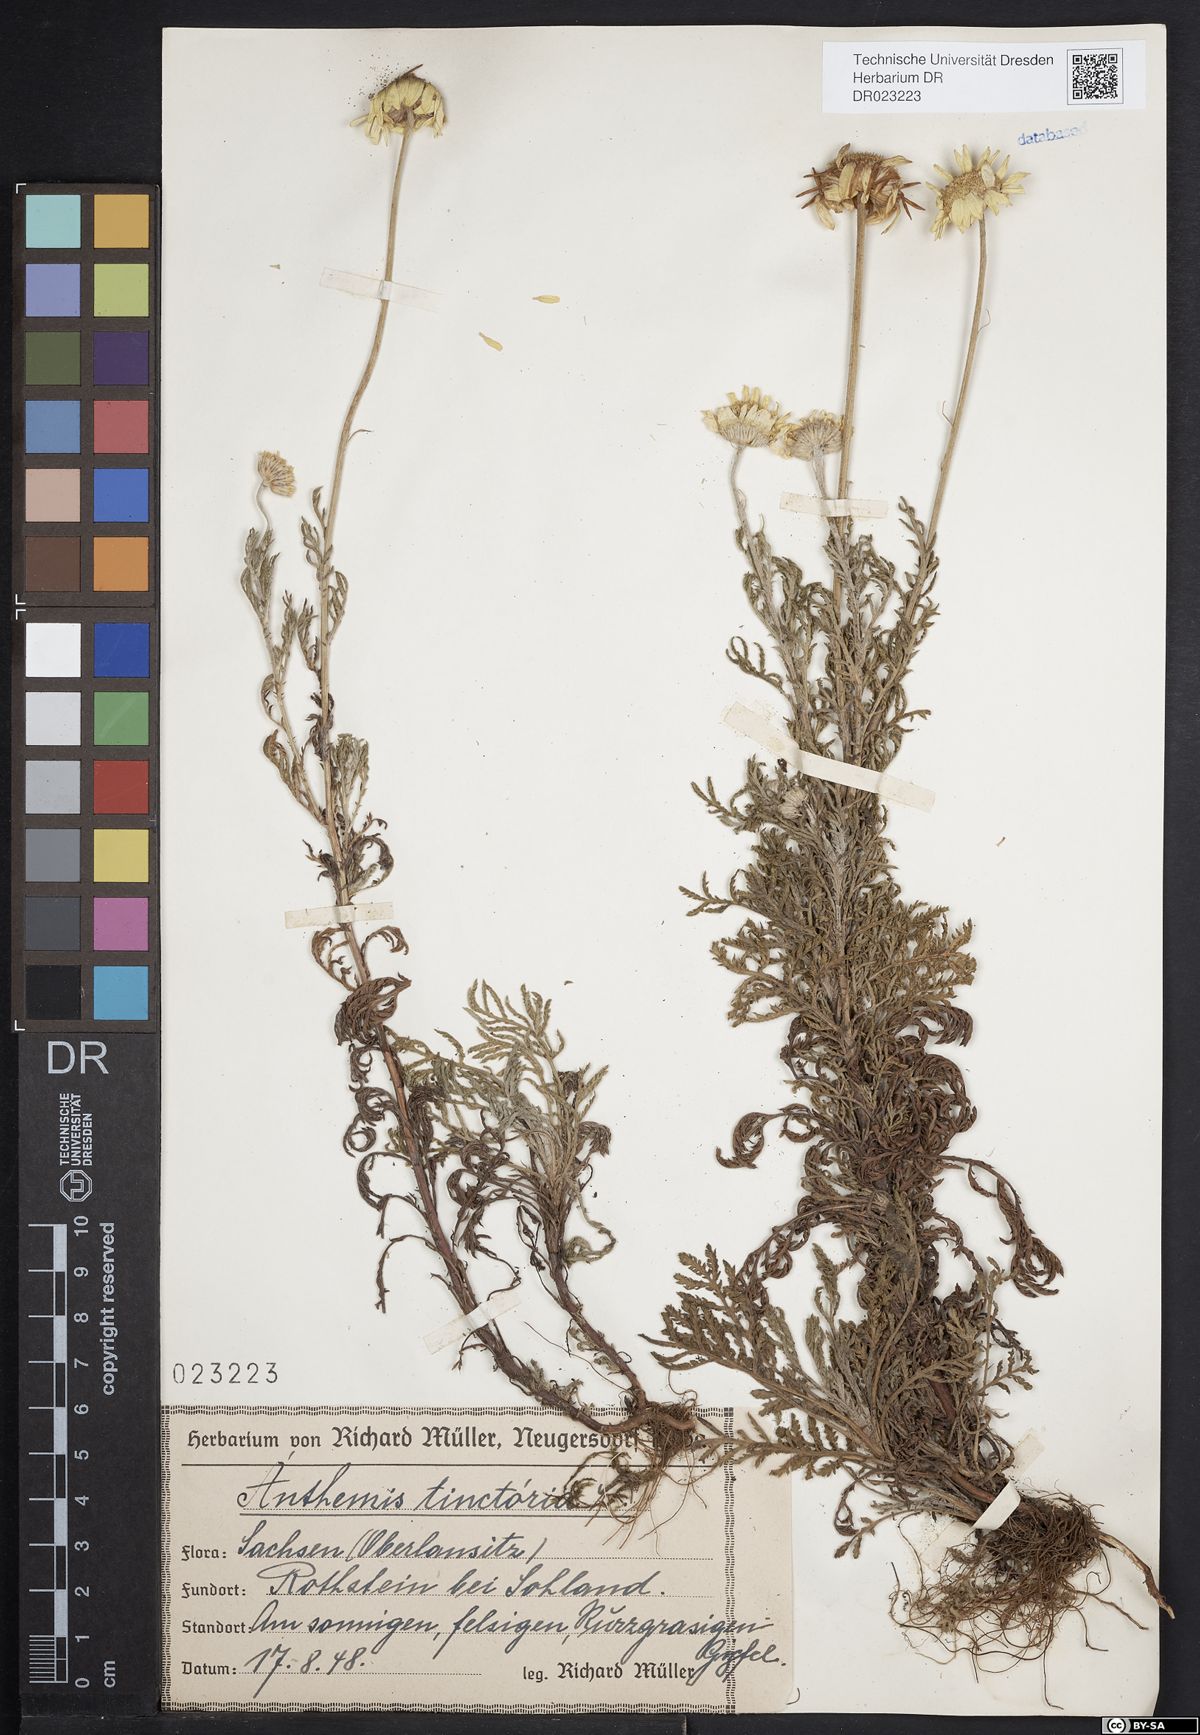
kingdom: Plantae
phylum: Tracheophyta
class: Magnoliopsida
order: Asterales
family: Asteraceae
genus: Cota
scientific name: Cota tinctoria
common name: Golden chamomile
